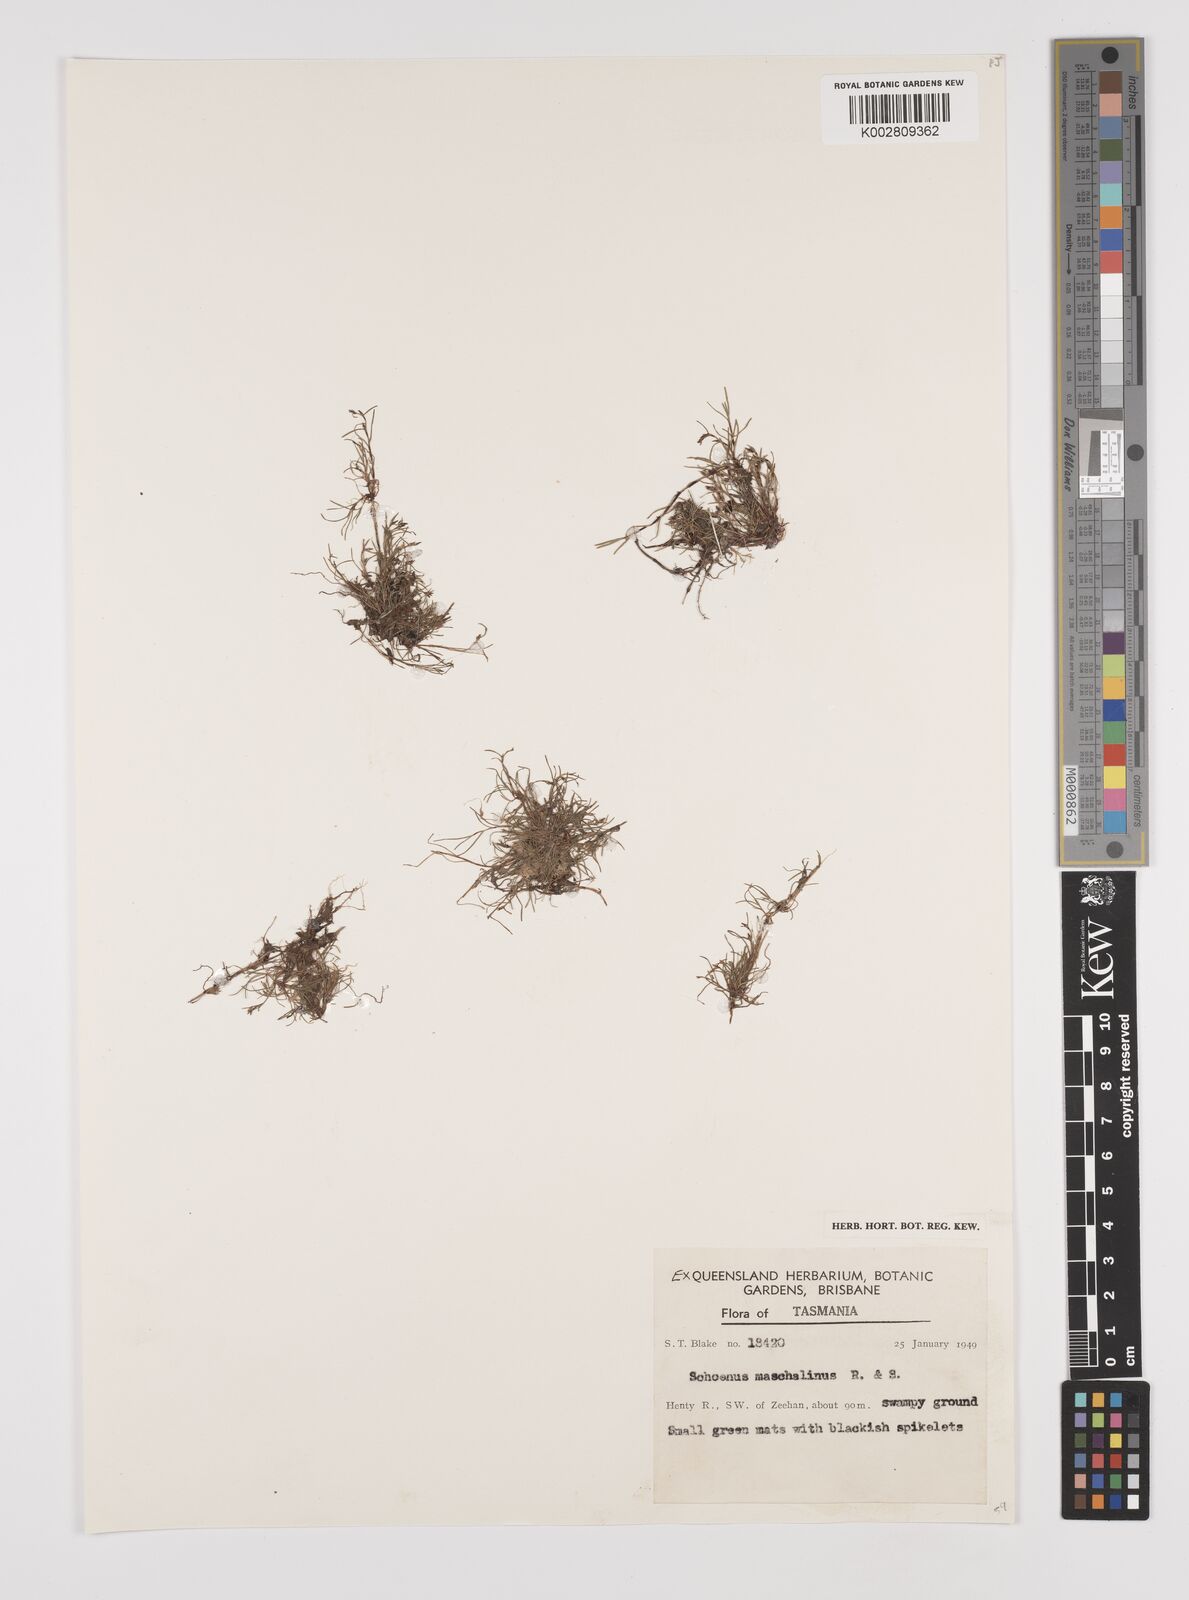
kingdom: Plantae
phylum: Tracheophyta
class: Liliopsida
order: Poales
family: Cyperaceae
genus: Schoenus
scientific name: Schoenus maschalinus
